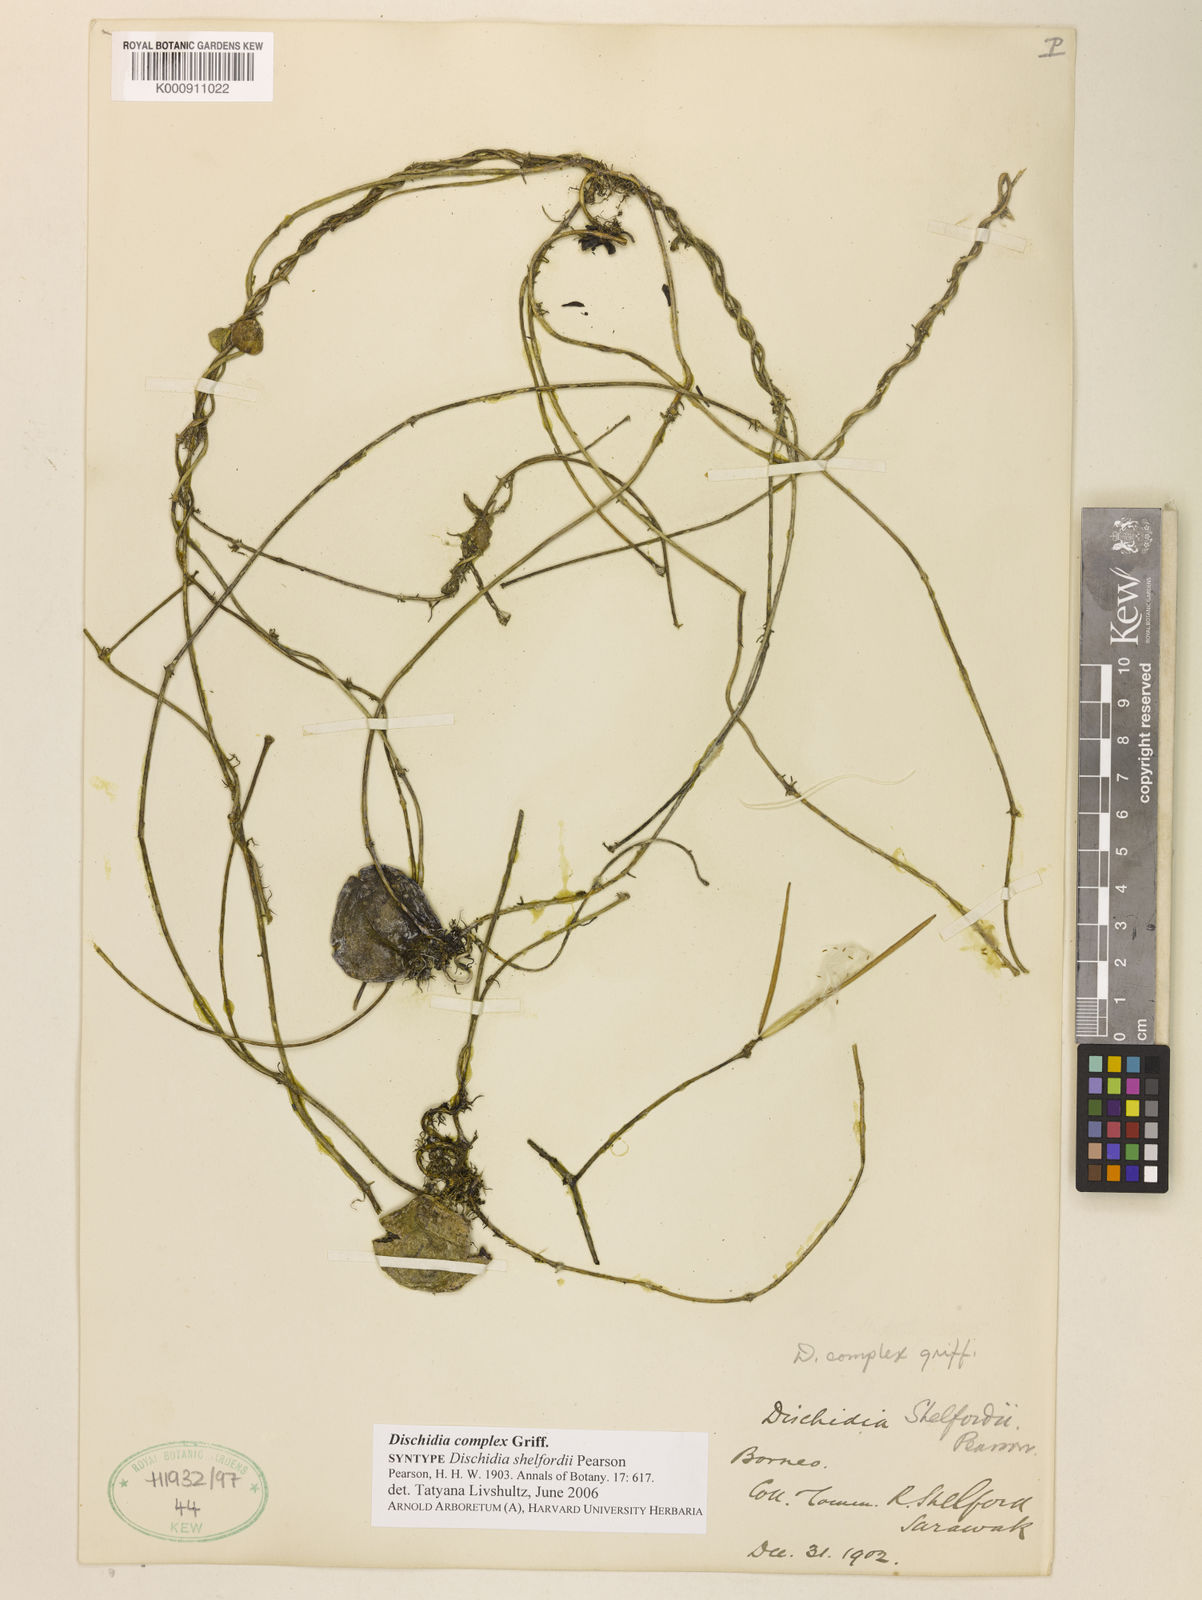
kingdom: Plantae
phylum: Tracheophyta
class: Magnoliopsida
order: Gentianales
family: Apocynaceae
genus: Dischidia
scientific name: Dischidia complex
